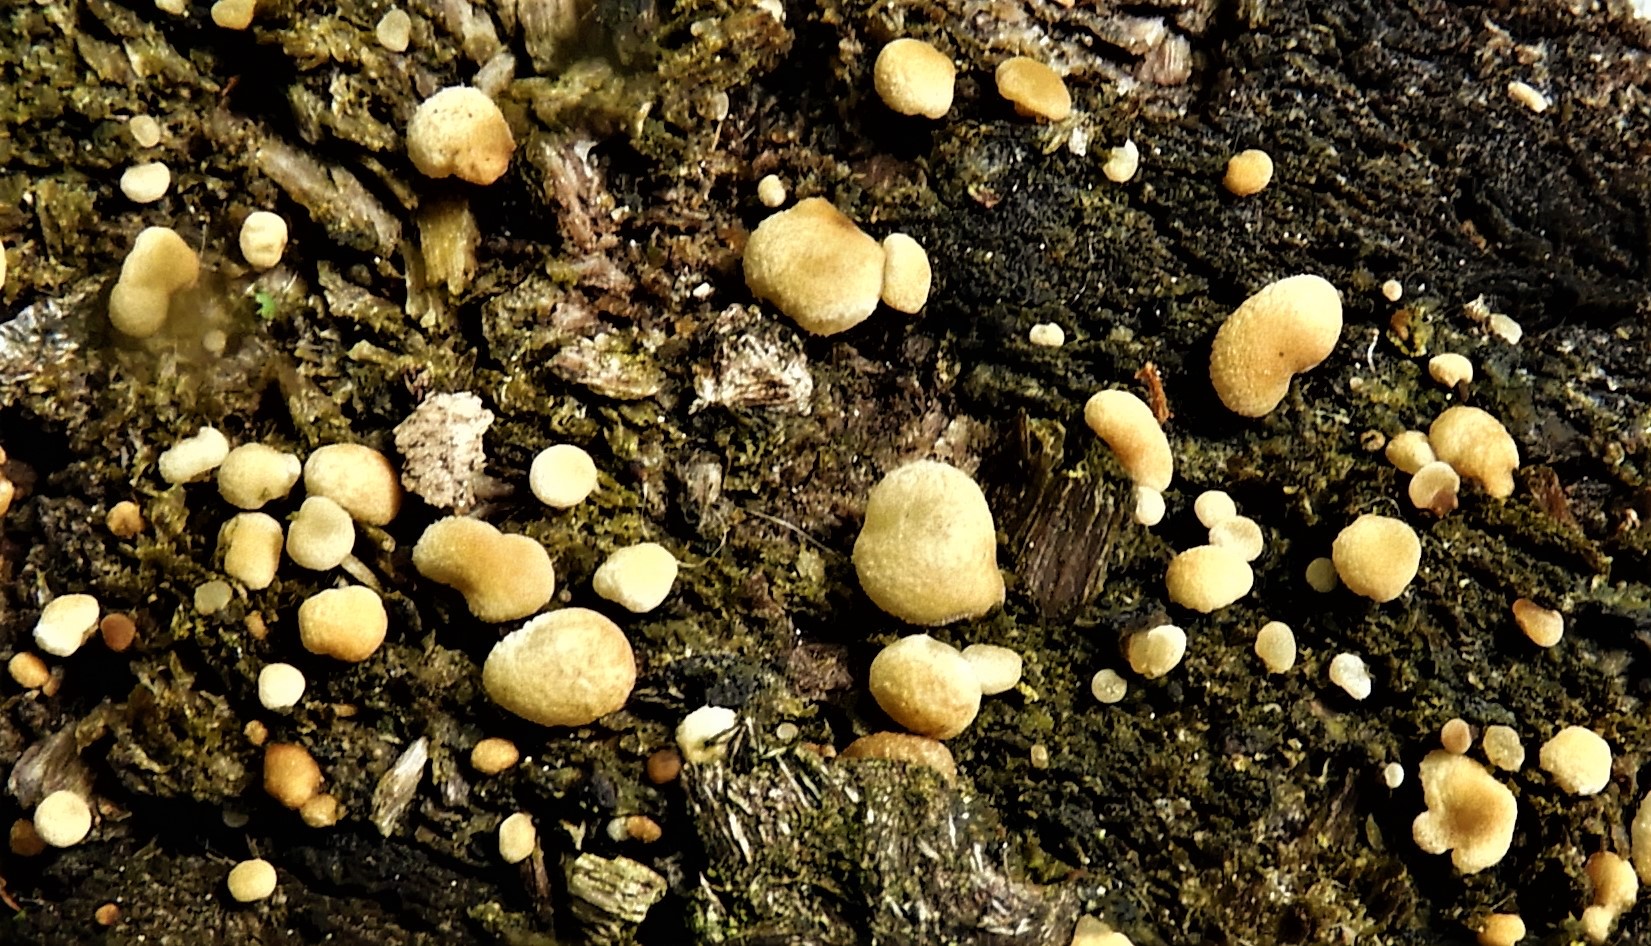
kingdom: Fungi
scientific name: Fungi
